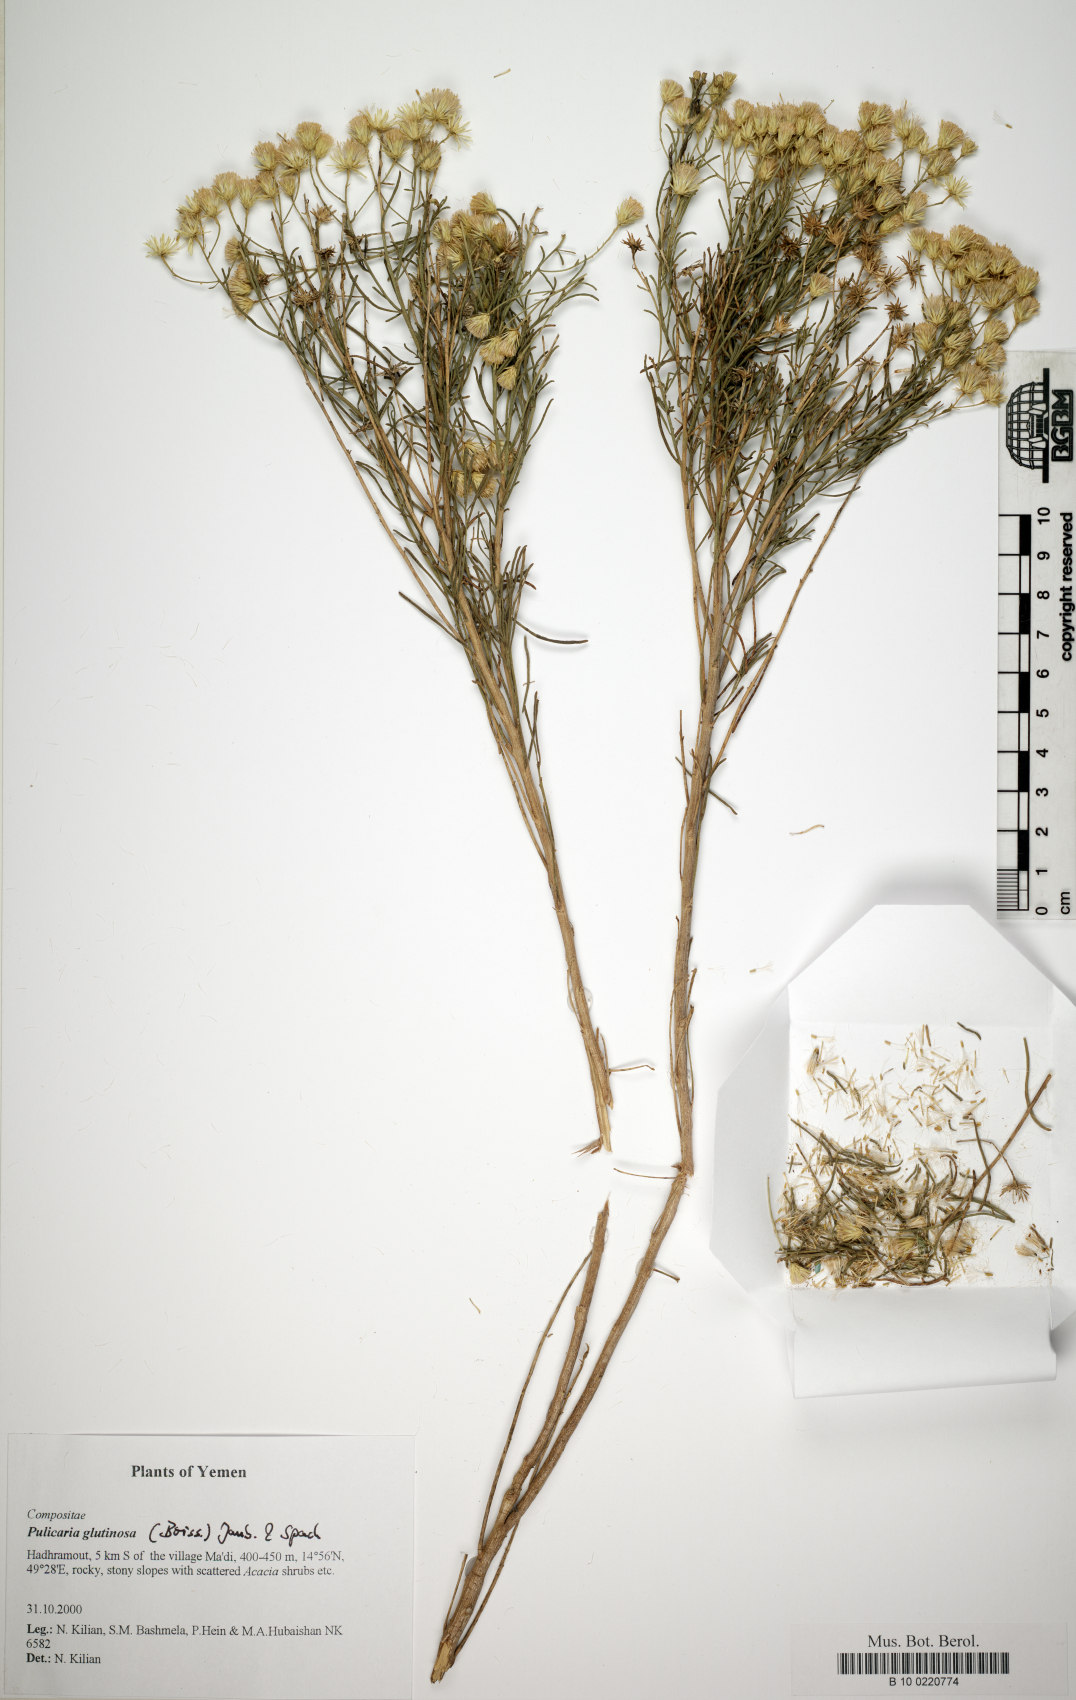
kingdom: Plantae
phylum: Tracheophyta
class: Magnoliopsida
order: Asterales
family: Asteraceae
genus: Pulicaria
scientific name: Pulicaria glutinosa
